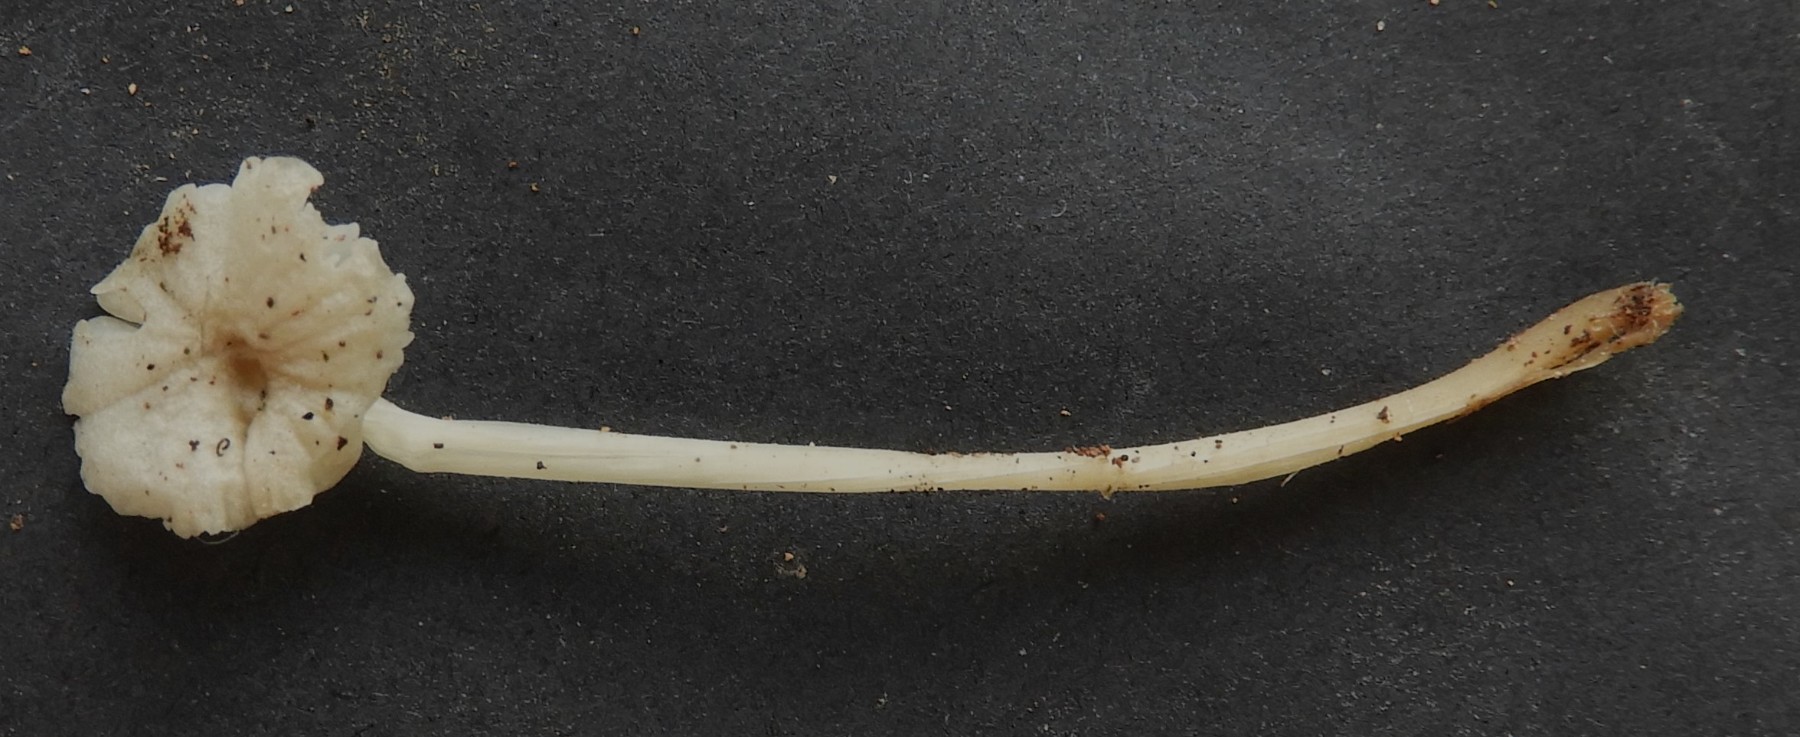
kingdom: Fungi
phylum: Basidiomycota
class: Agaricomycetes
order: Agaricales
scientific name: Agaricales
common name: champignonordenen
